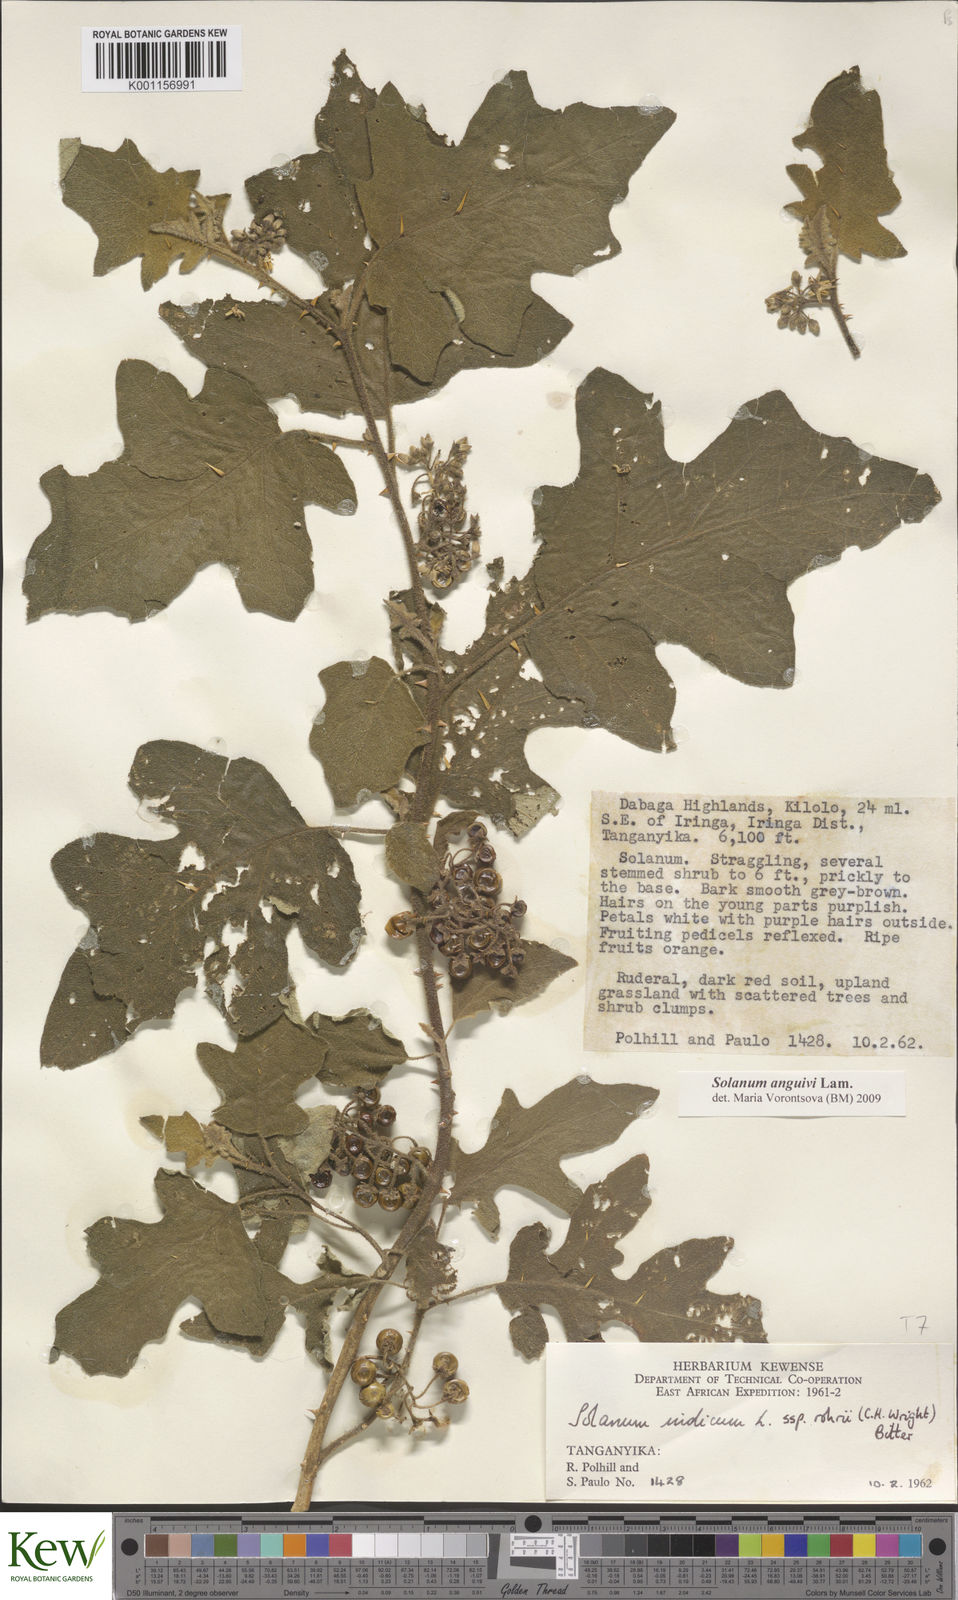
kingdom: Plantae
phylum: Tracheophyta
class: Magnoliopsida
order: Solanales
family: Solanaceae
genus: Solanum
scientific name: Solanum anguivi
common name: Forest bitterberry
